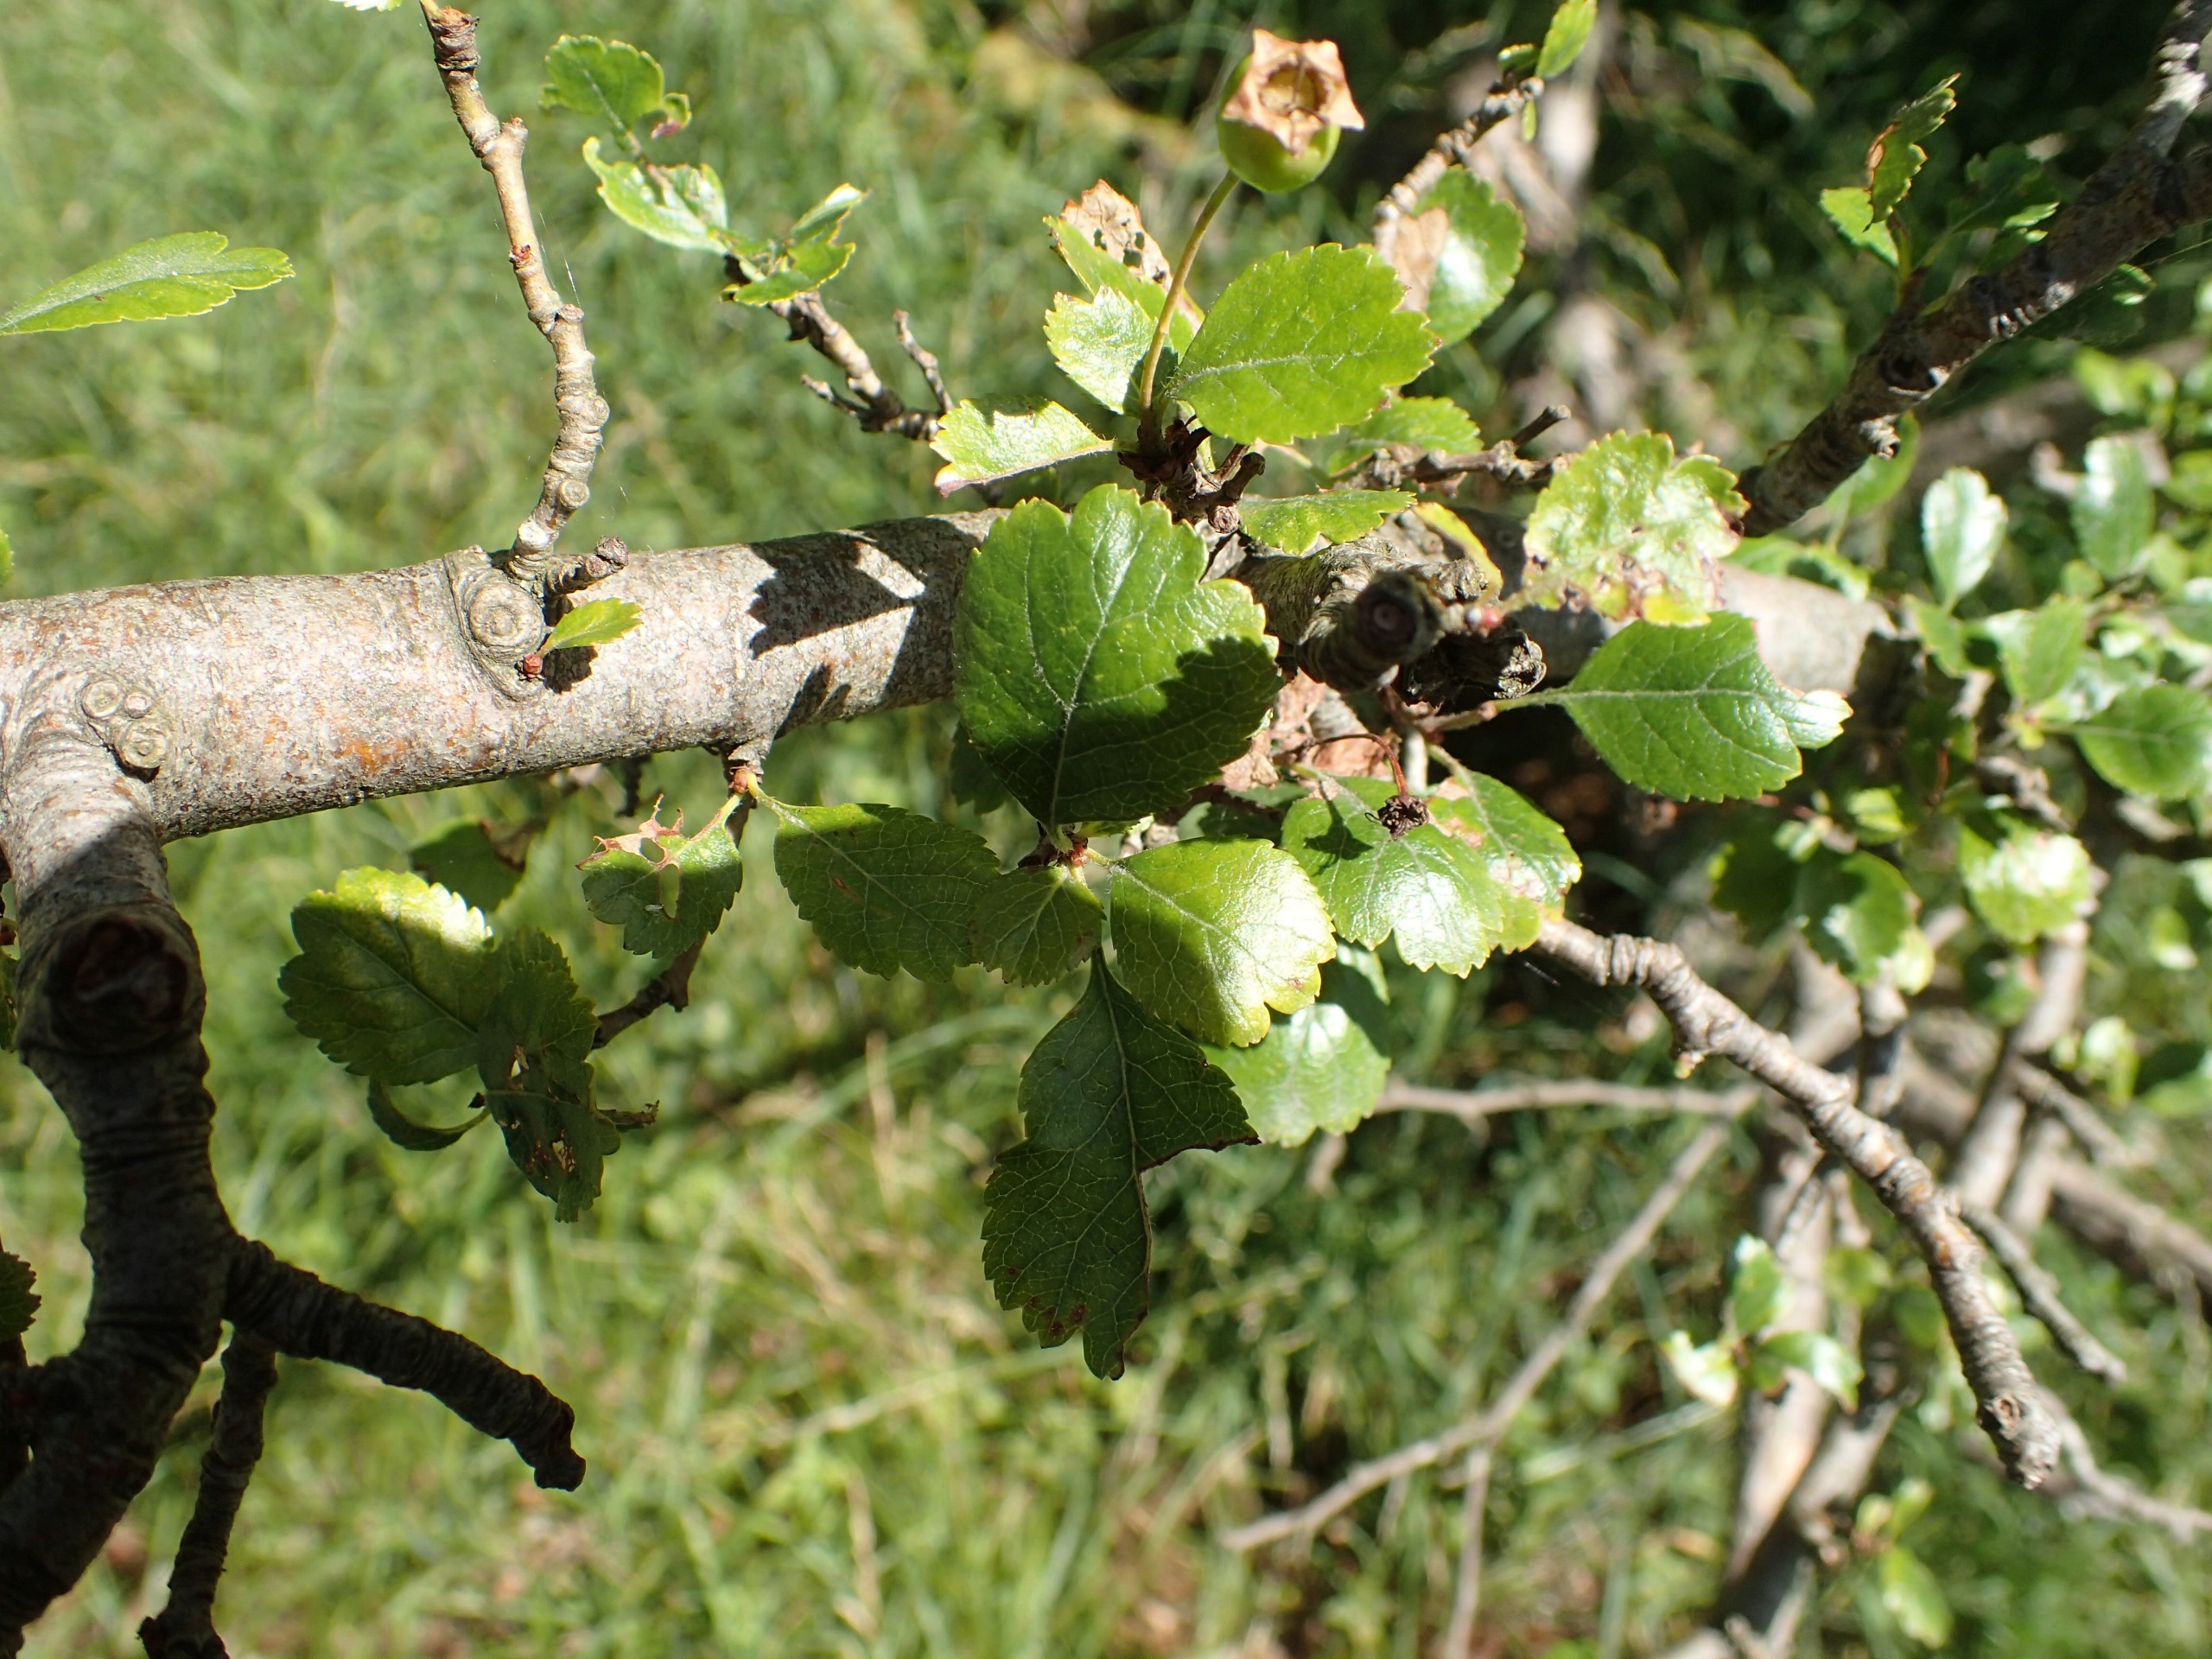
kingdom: Plantae
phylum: Tracheophyta
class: Magnoliopsida
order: Rosales
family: Rosaceae
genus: Crataegus
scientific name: Crataegus laevigata
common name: Almindelig hvidtjørn
